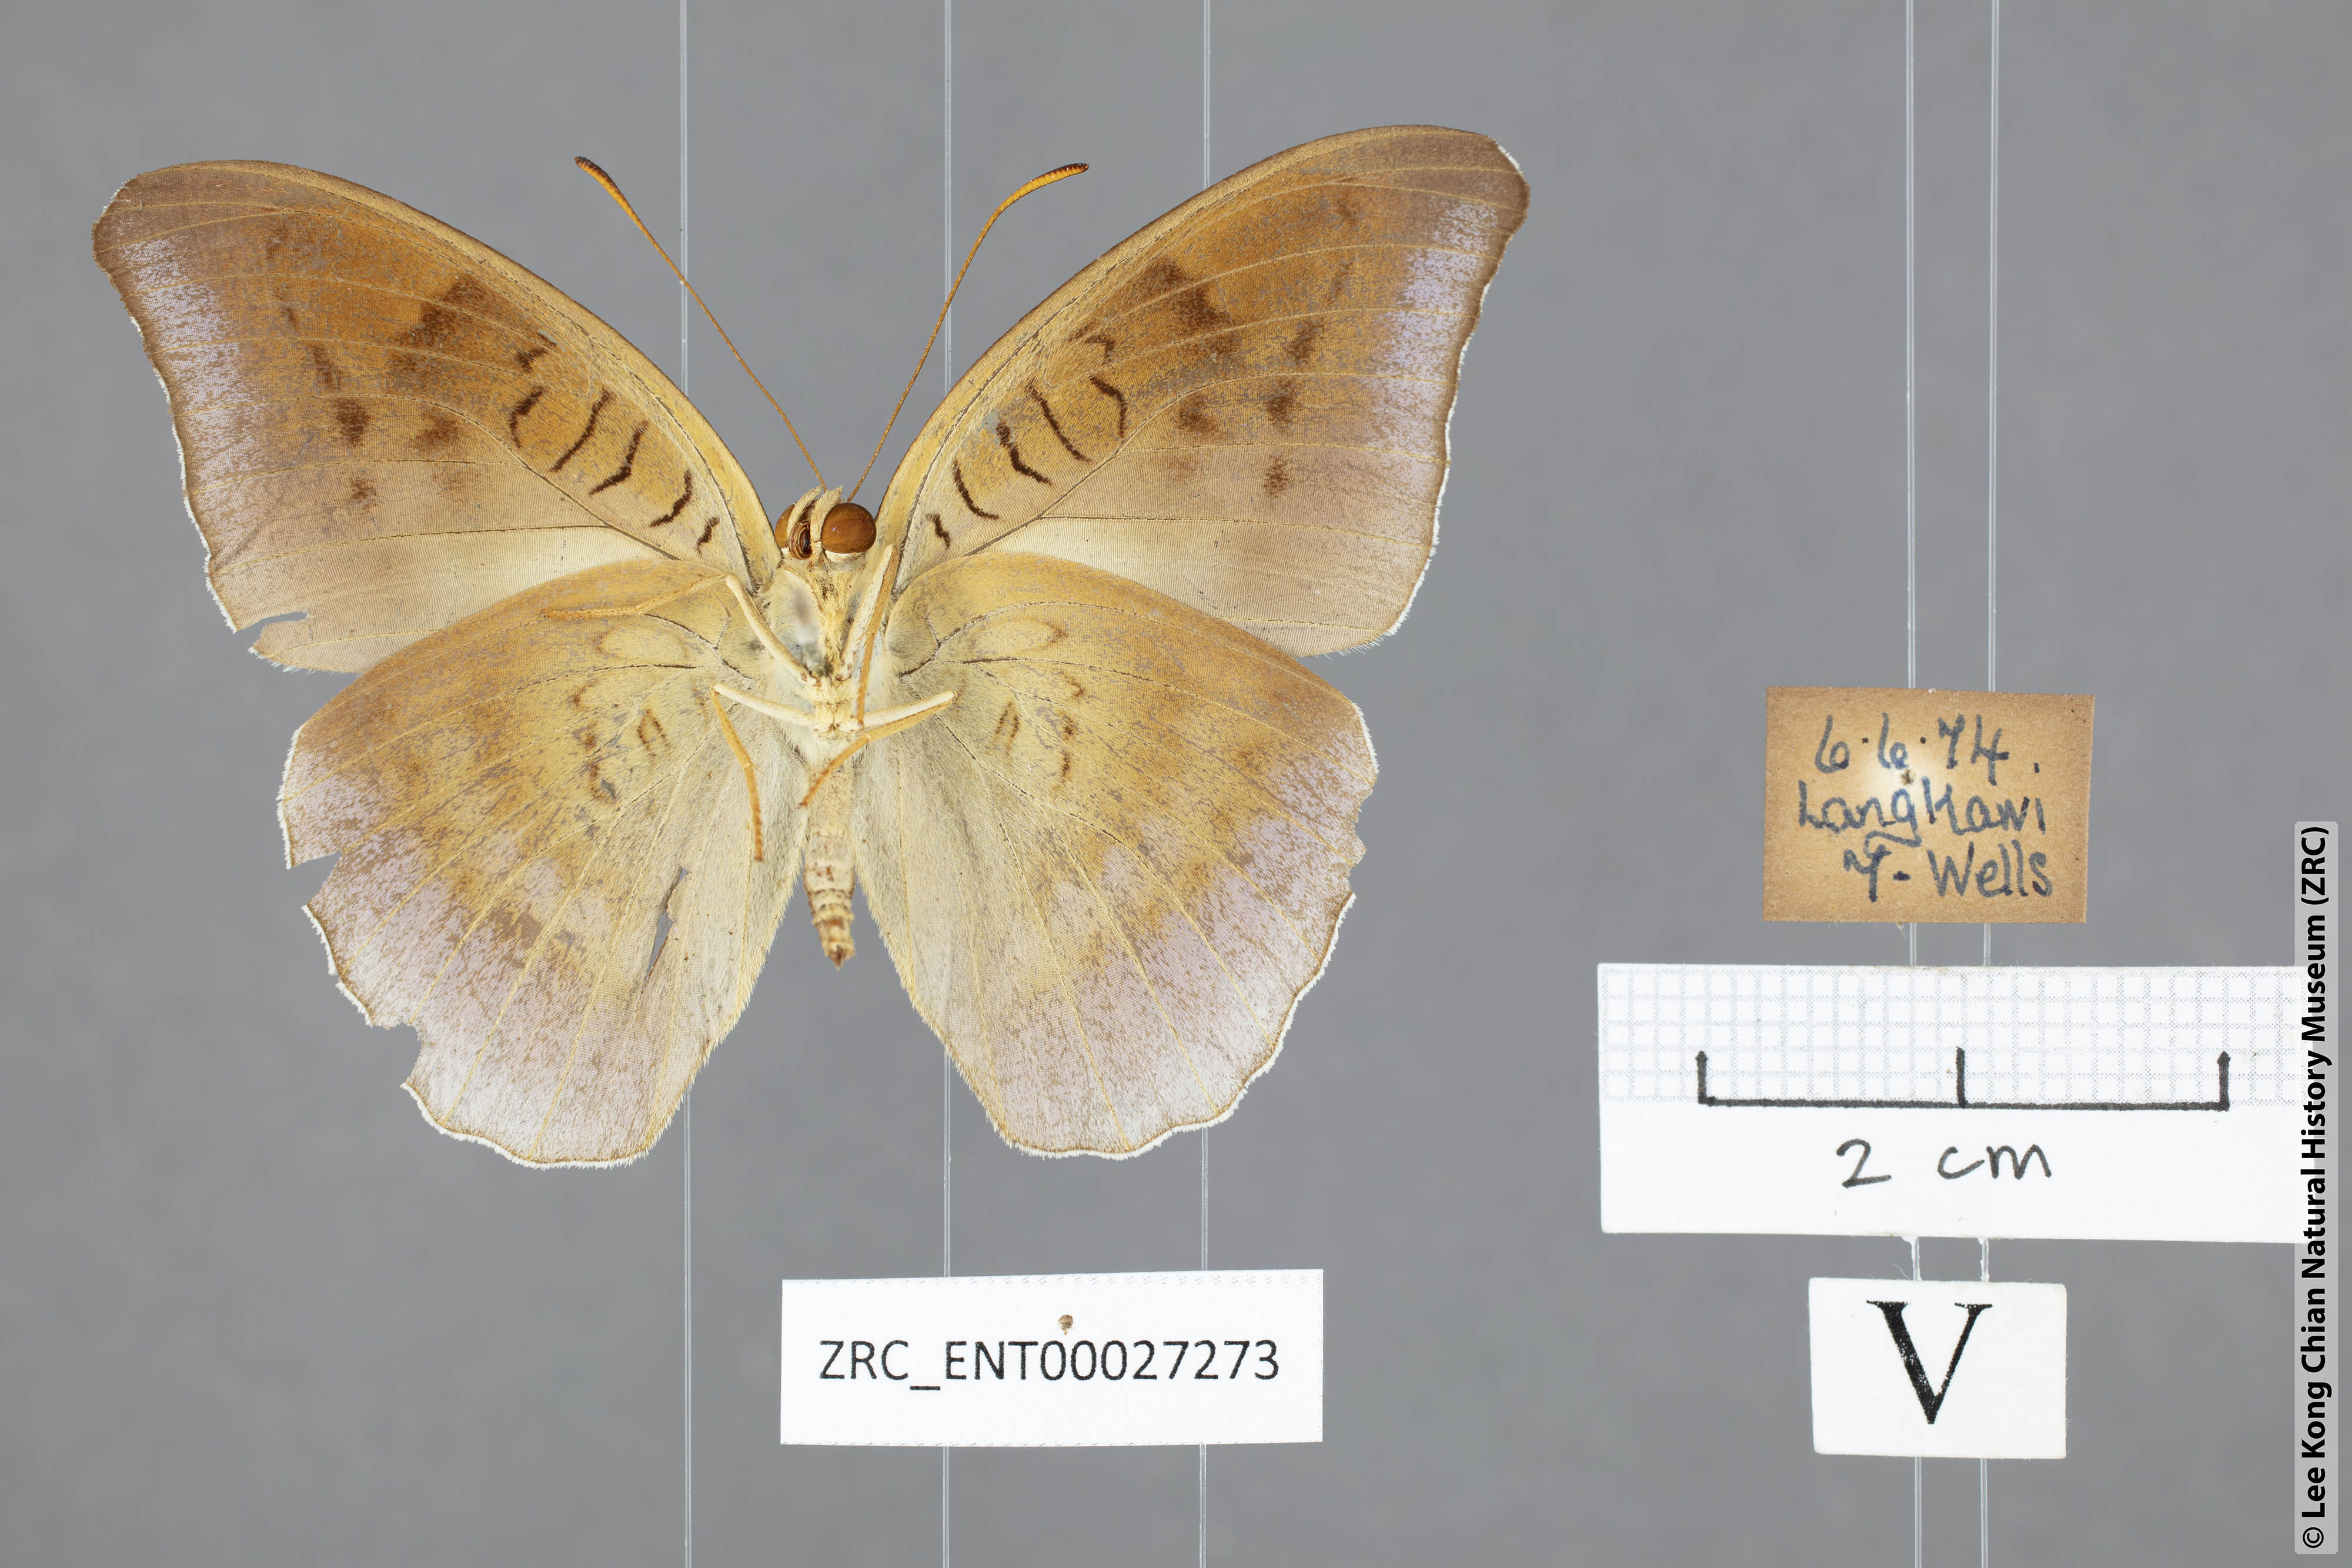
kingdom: Animalia
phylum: Arthropoda
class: Insecta
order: Lepidoptera
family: Nymphalidae
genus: Tanaecia
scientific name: Tanaecia flora
